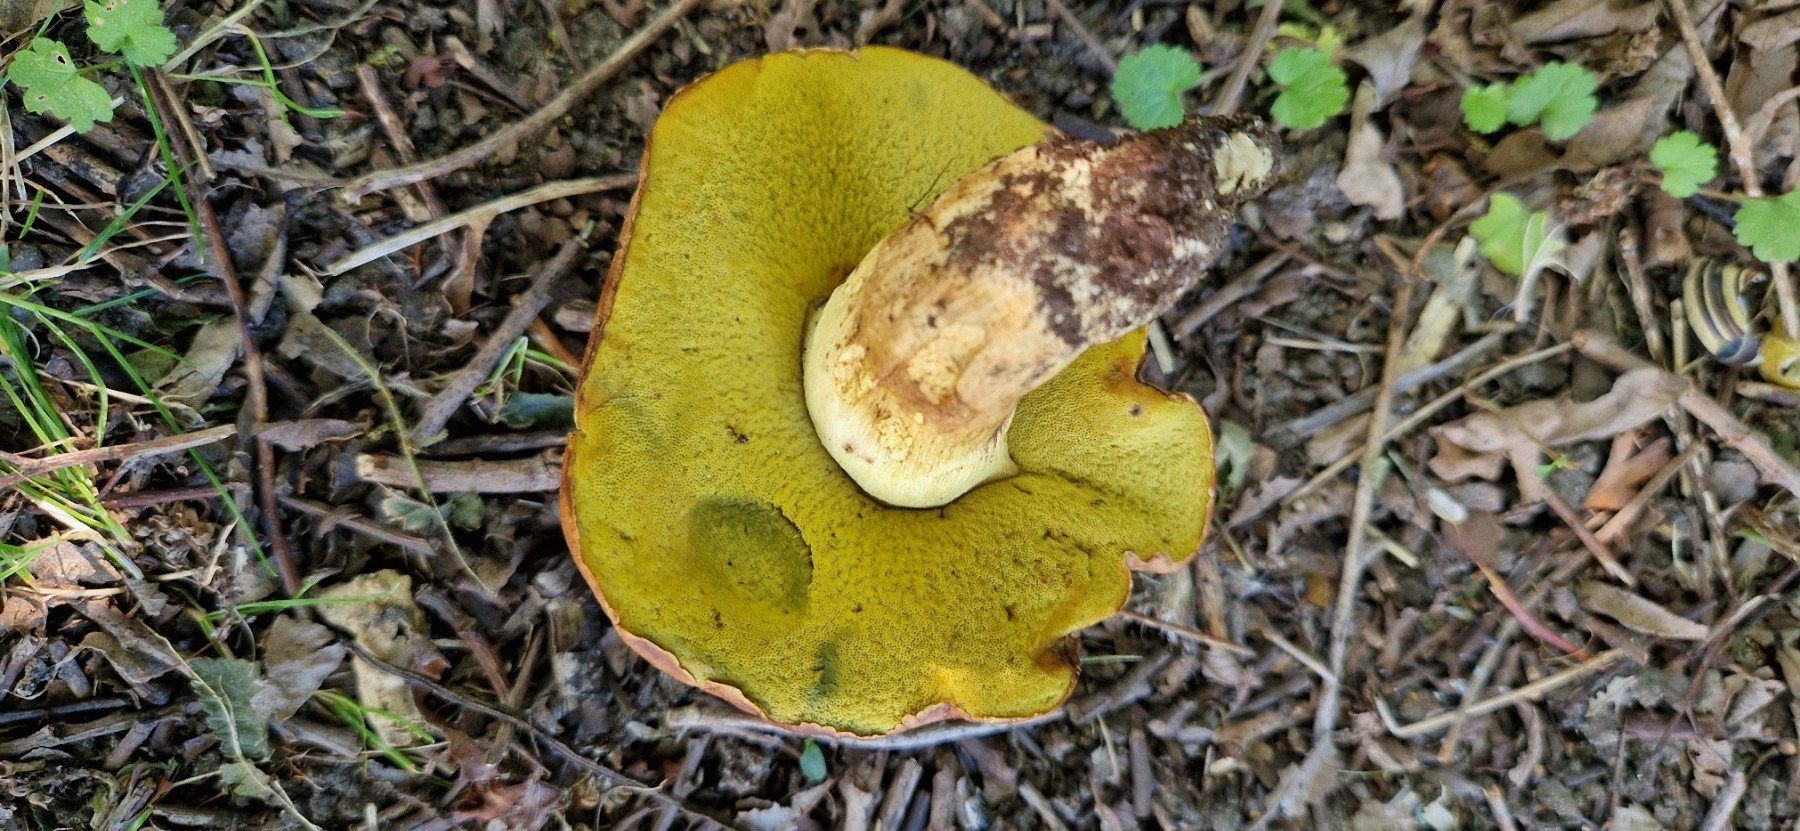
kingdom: Fungi
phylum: Basidiomycota
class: Agaricomycetes
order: Boletales
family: Boletaceae
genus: Butyriboletus
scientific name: Butyriboletus appendiculatus
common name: tenstokket rørhat
